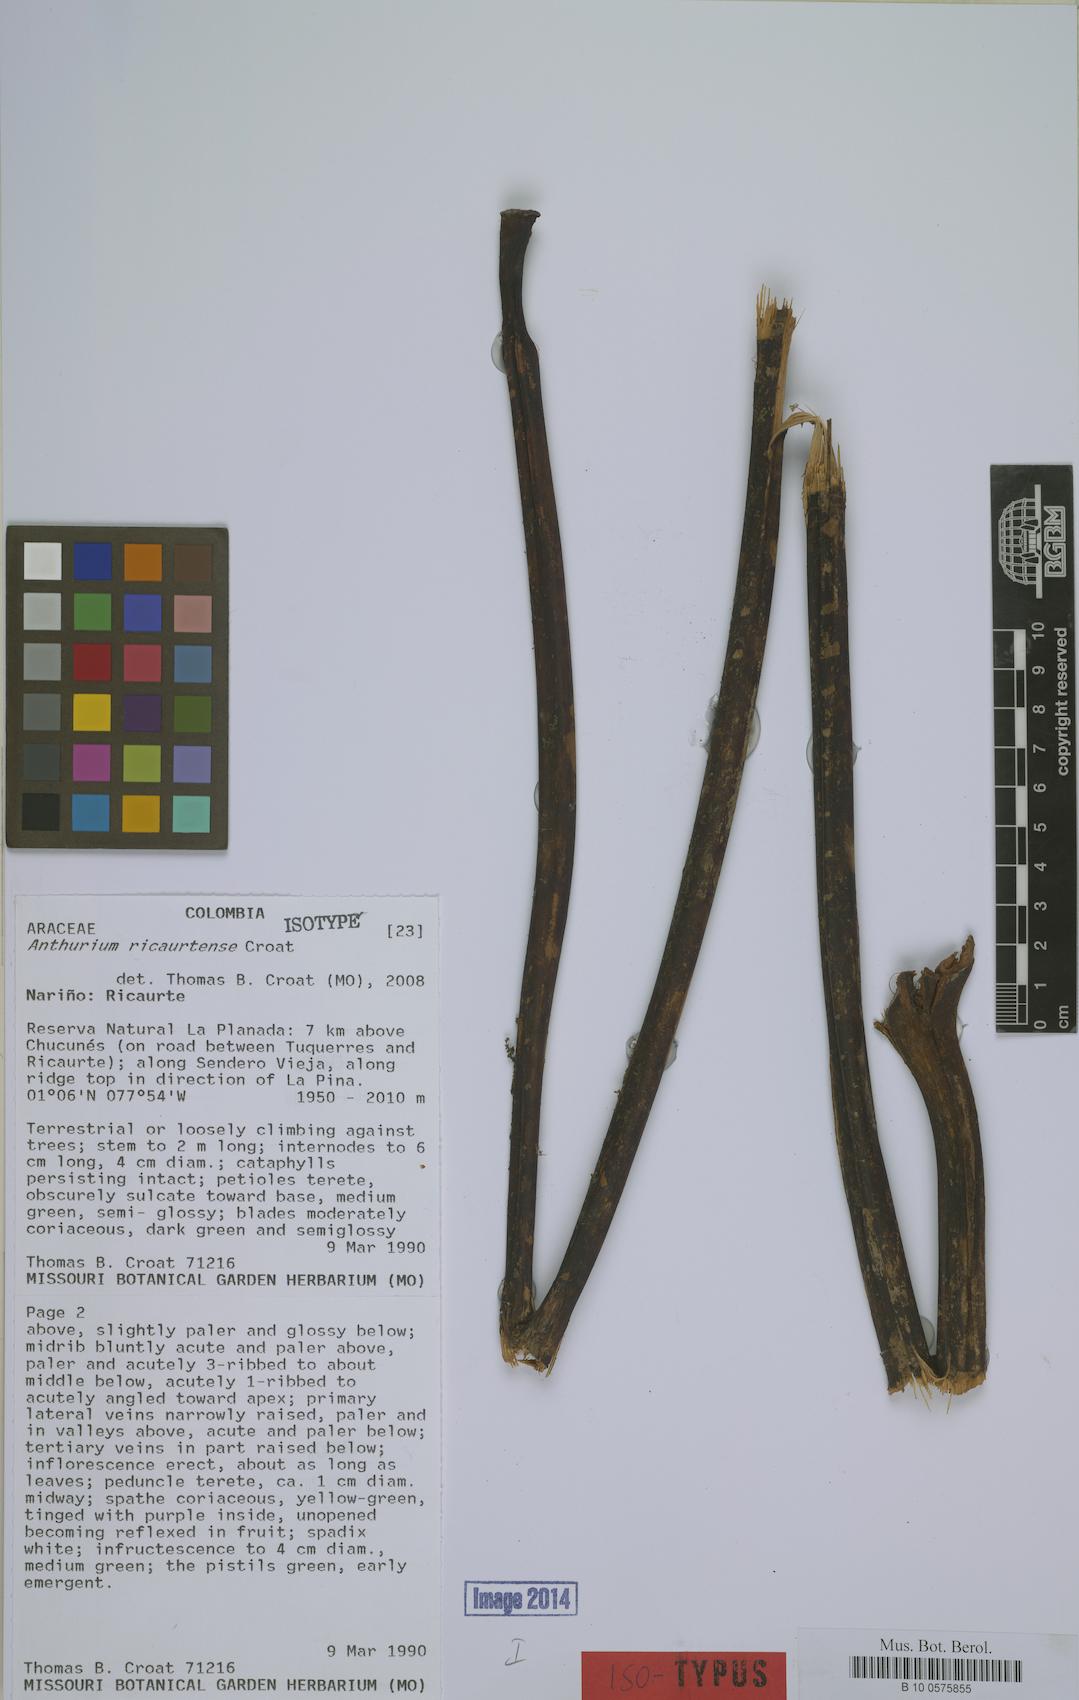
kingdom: Plantae
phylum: Tracheophyta
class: Liliopsida
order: Alismatales
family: Araceae
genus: Anthurium
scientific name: Anthurium ricaurtense
